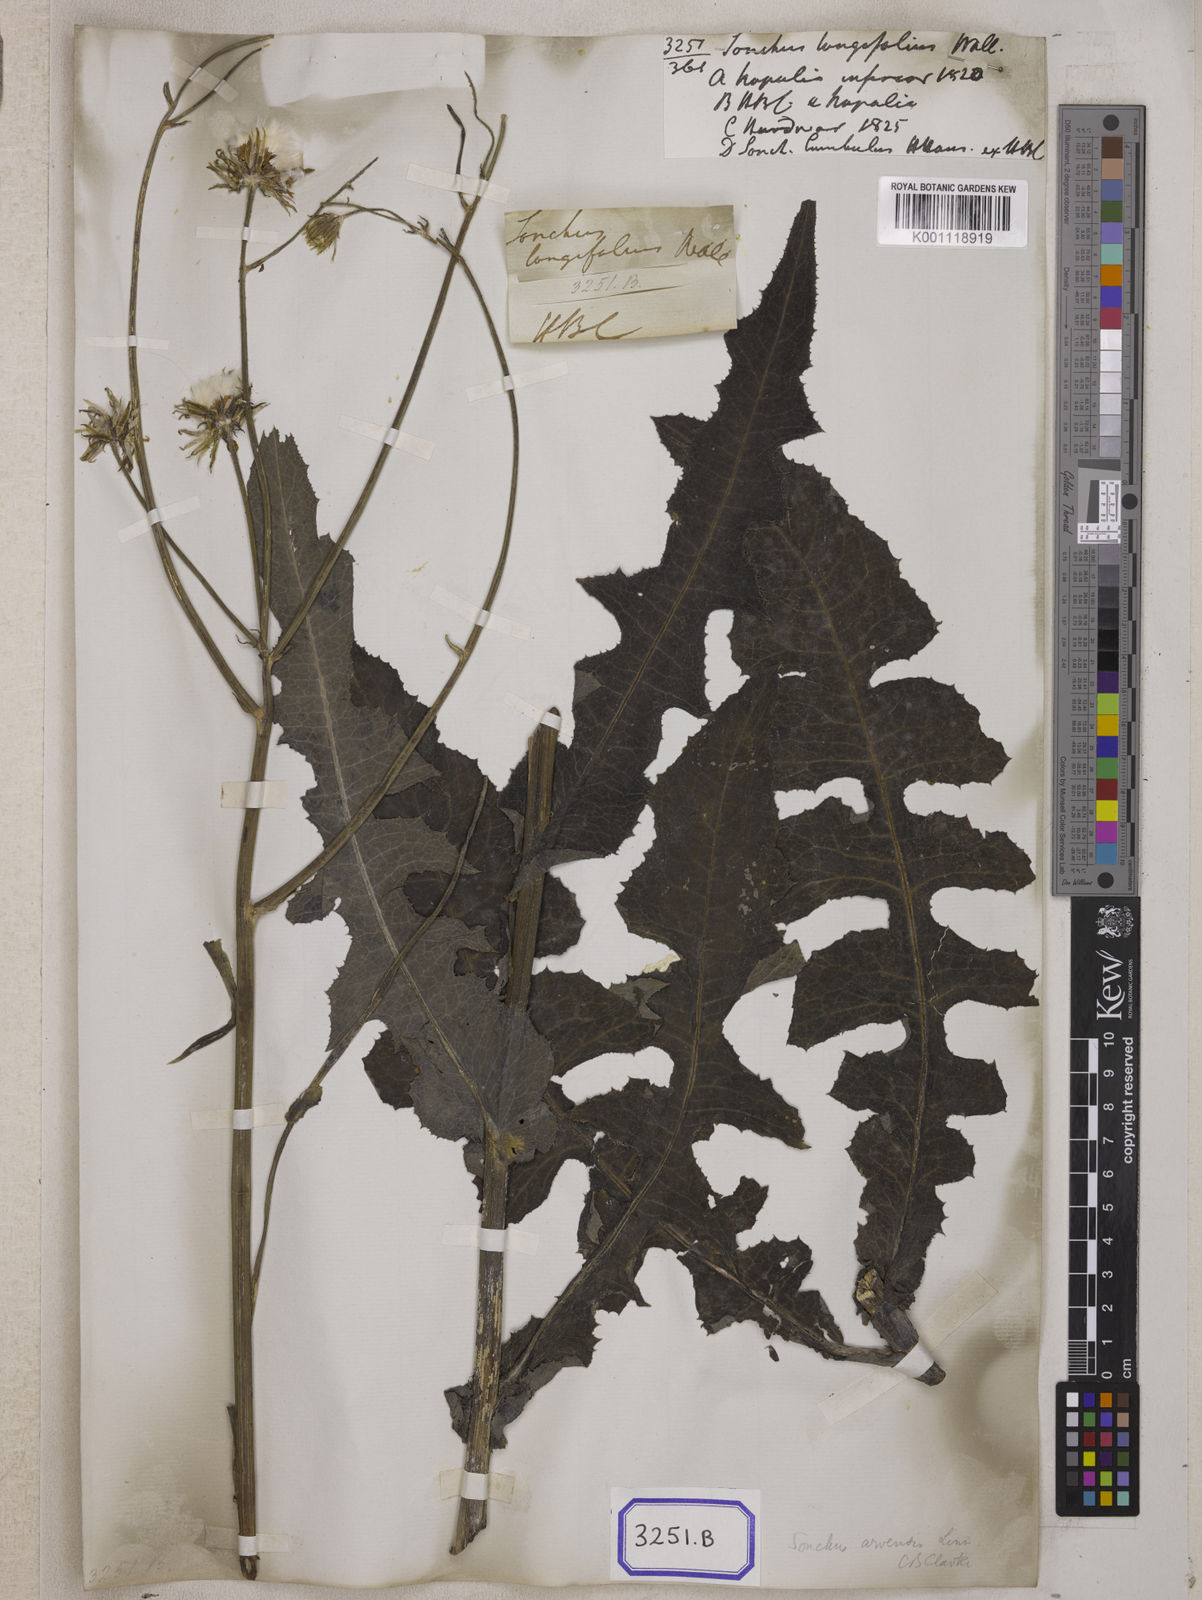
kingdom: Plantae
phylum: Tracheophyta
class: Magnoliopsida
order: Asterales
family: Asteraceae
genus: Sonchus
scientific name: Sonchus arvensis
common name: Perennial sow-thistle
